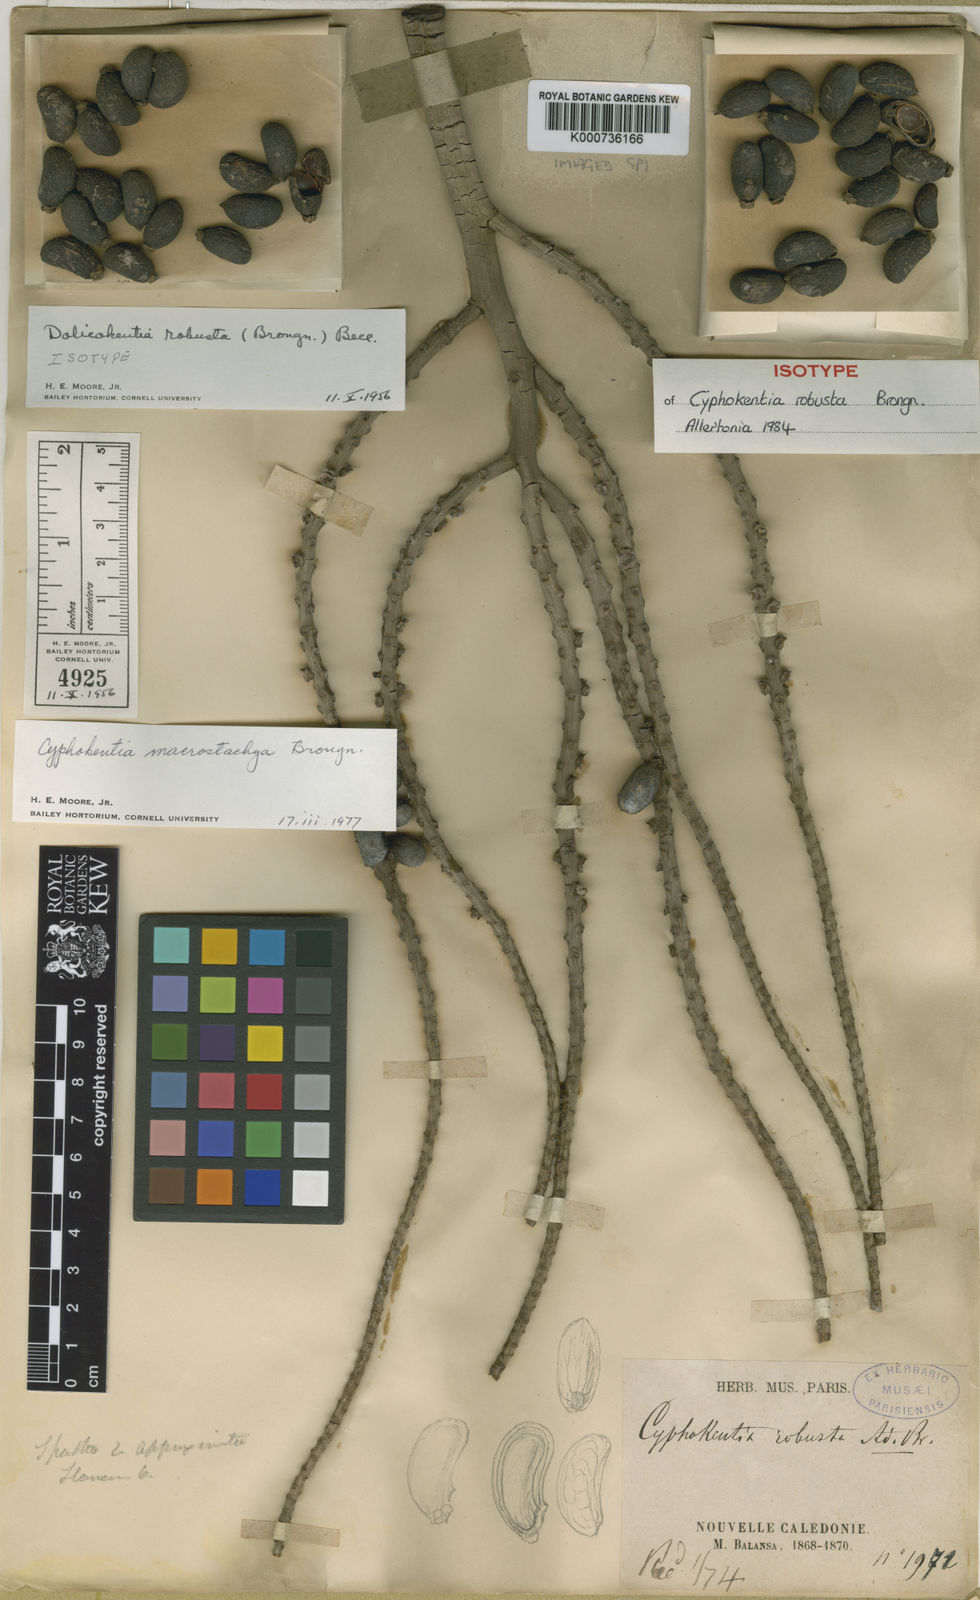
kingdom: Plantae
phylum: Tracheophyta
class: Liliopsida
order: Arecales
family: Arecaceae
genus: Cyphokentia
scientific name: Cyphokentia macrostachya
